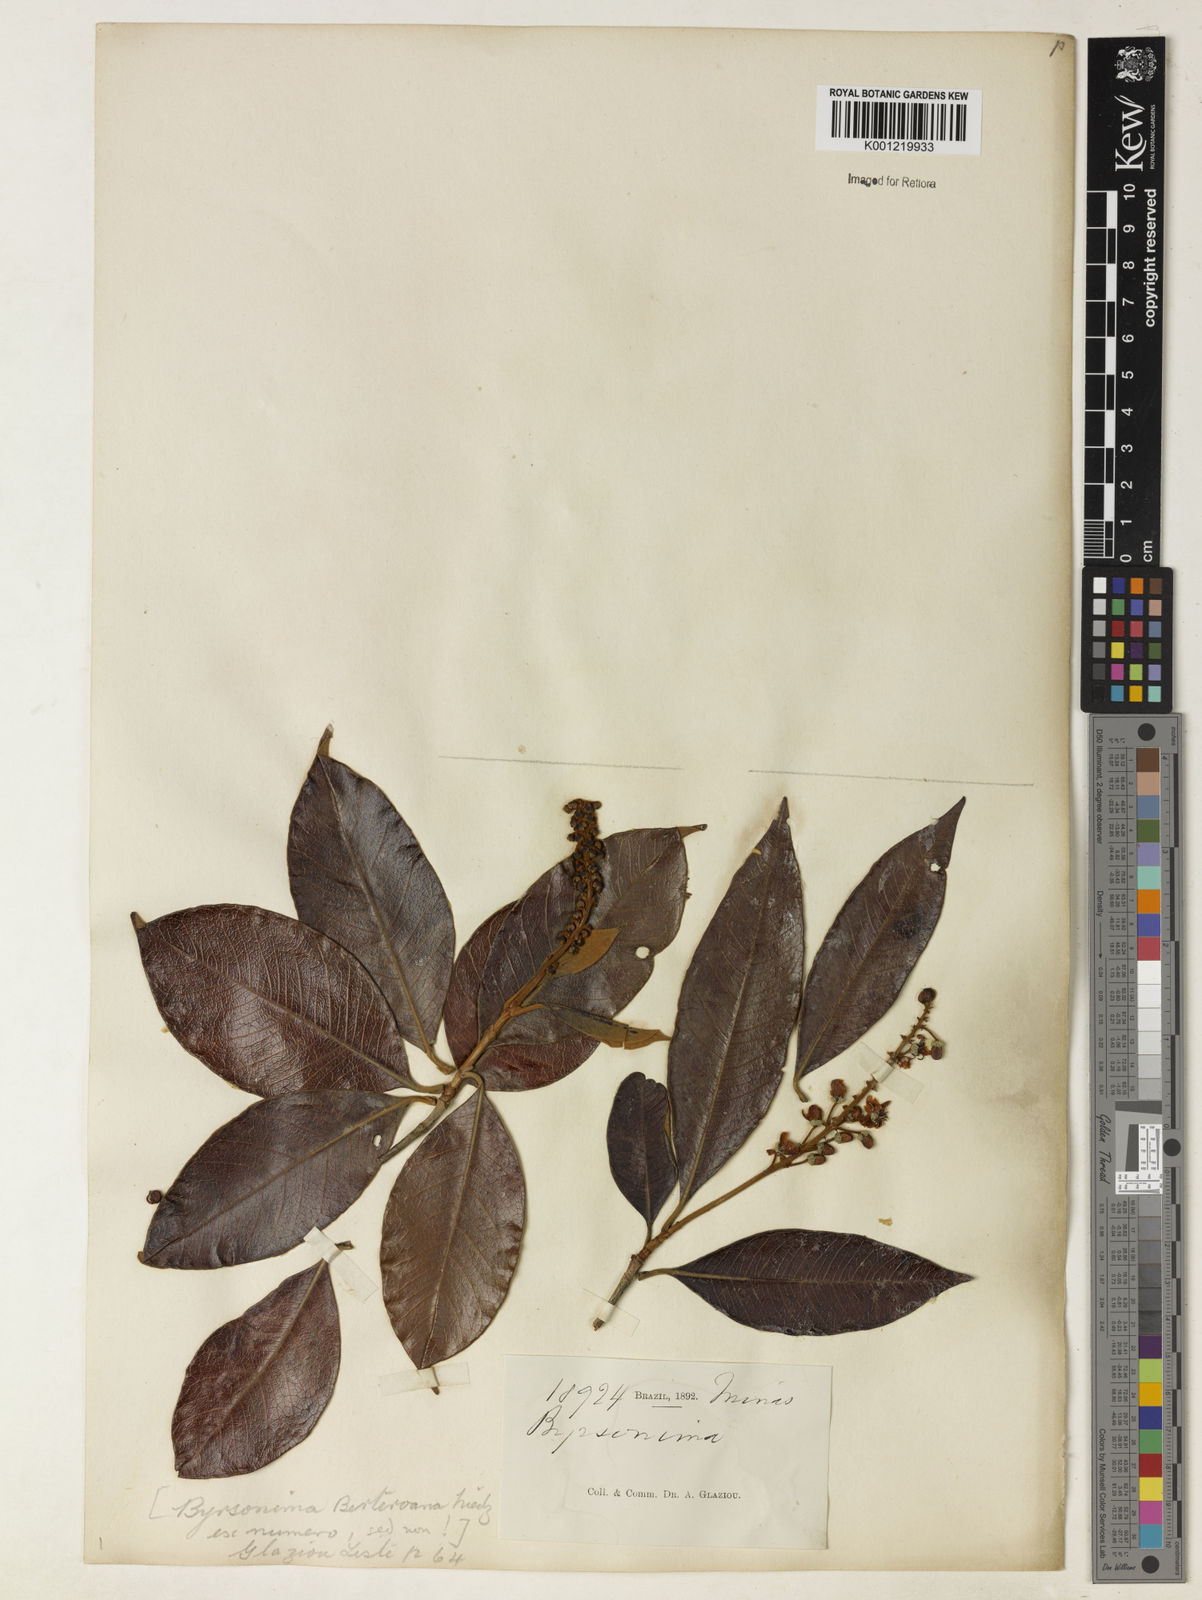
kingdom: Plantae
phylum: Tracheophyta
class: Magnoliopsida
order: Malpighiales
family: Malpighiaceae
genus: Byrsonima
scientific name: Byrsonima
